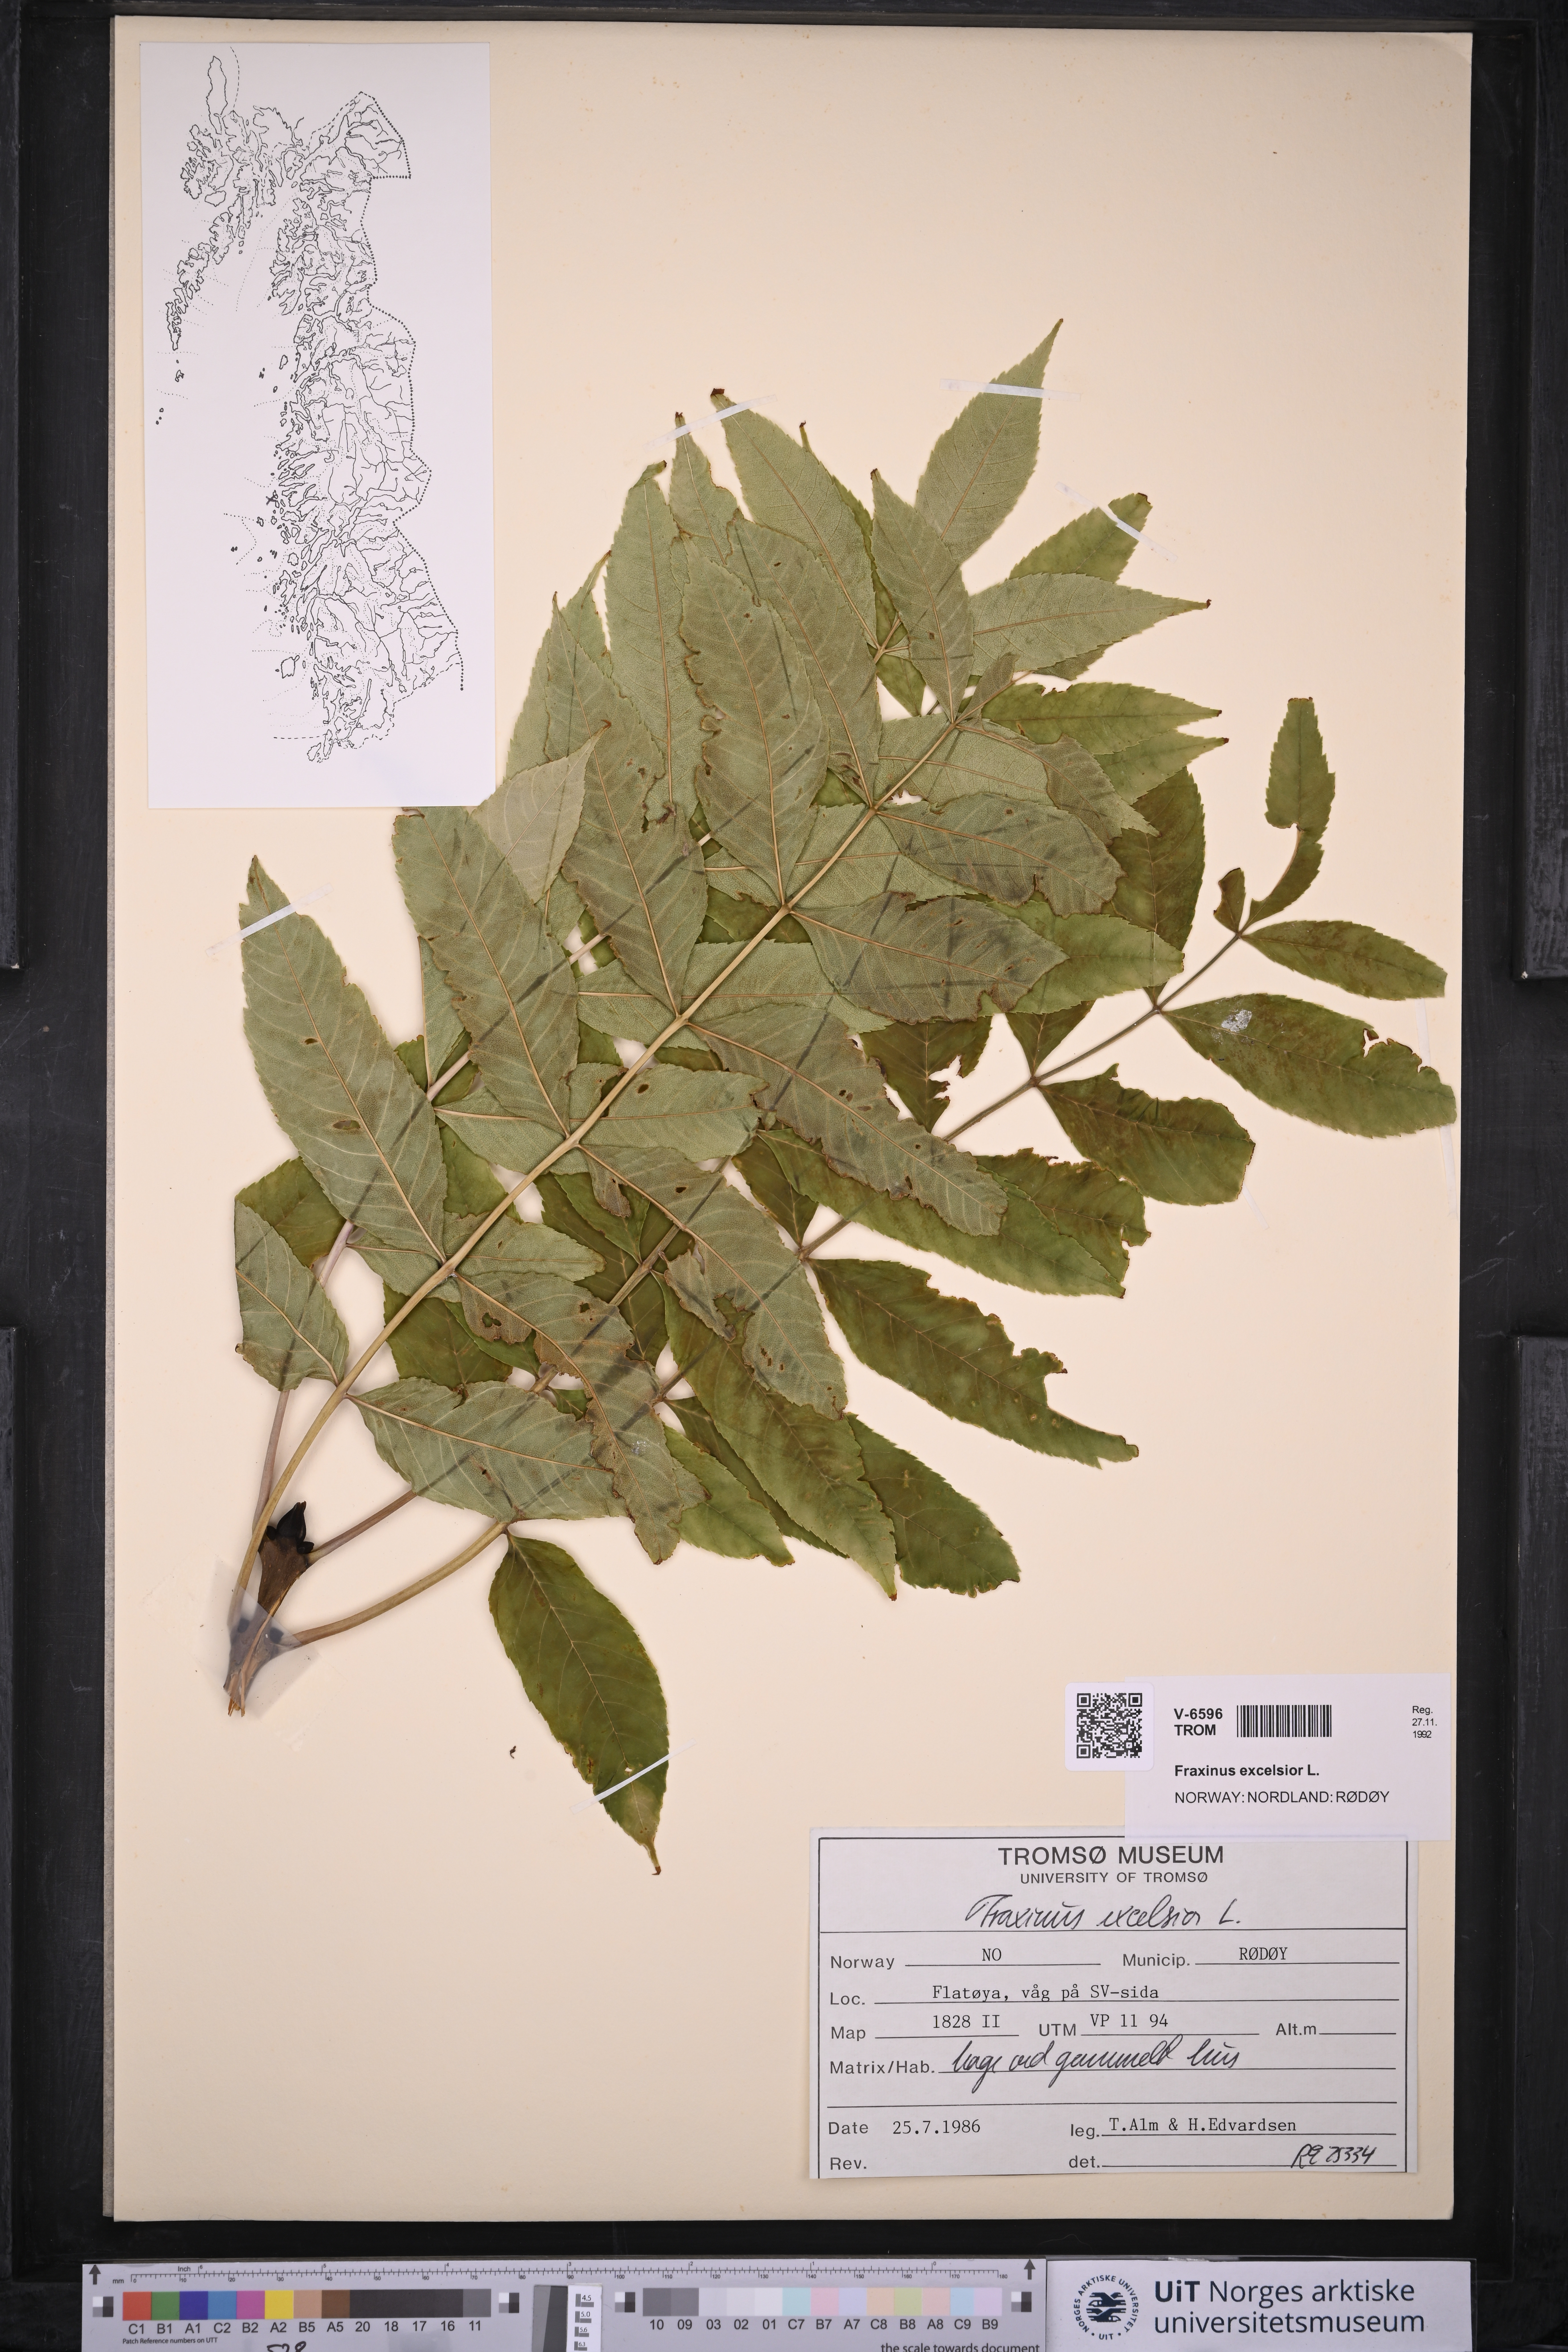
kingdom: Plantae
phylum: Tracheophyta
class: Magnoliopsida
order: Lamiales
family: Oleaceae
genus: Fraxinus
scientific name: Fraxinus excelsior
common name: European ash
